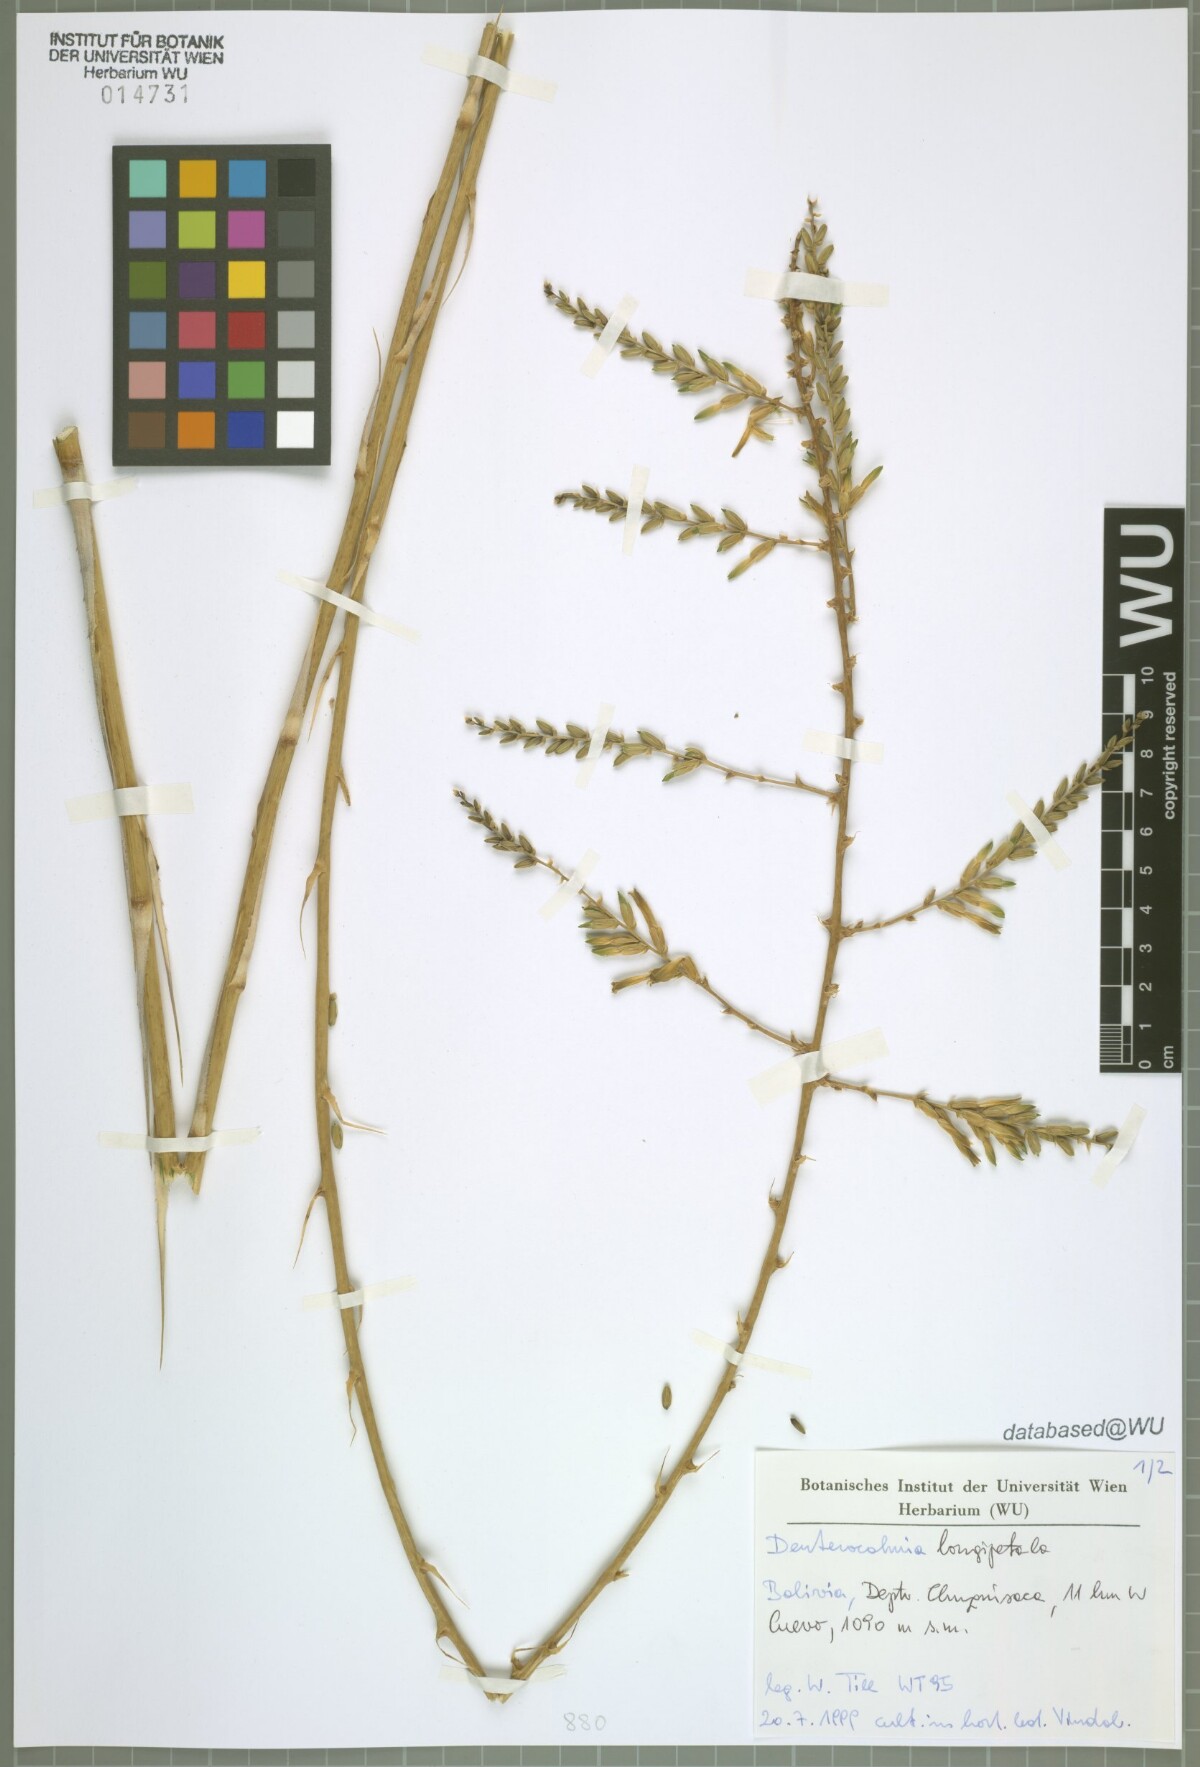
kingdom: Plantae
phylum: Tracheophyta
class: Liliopsida
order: Poales
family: Bromeliaceae
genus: Deuterocohnia
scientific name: Deuterocohnia longipetala
